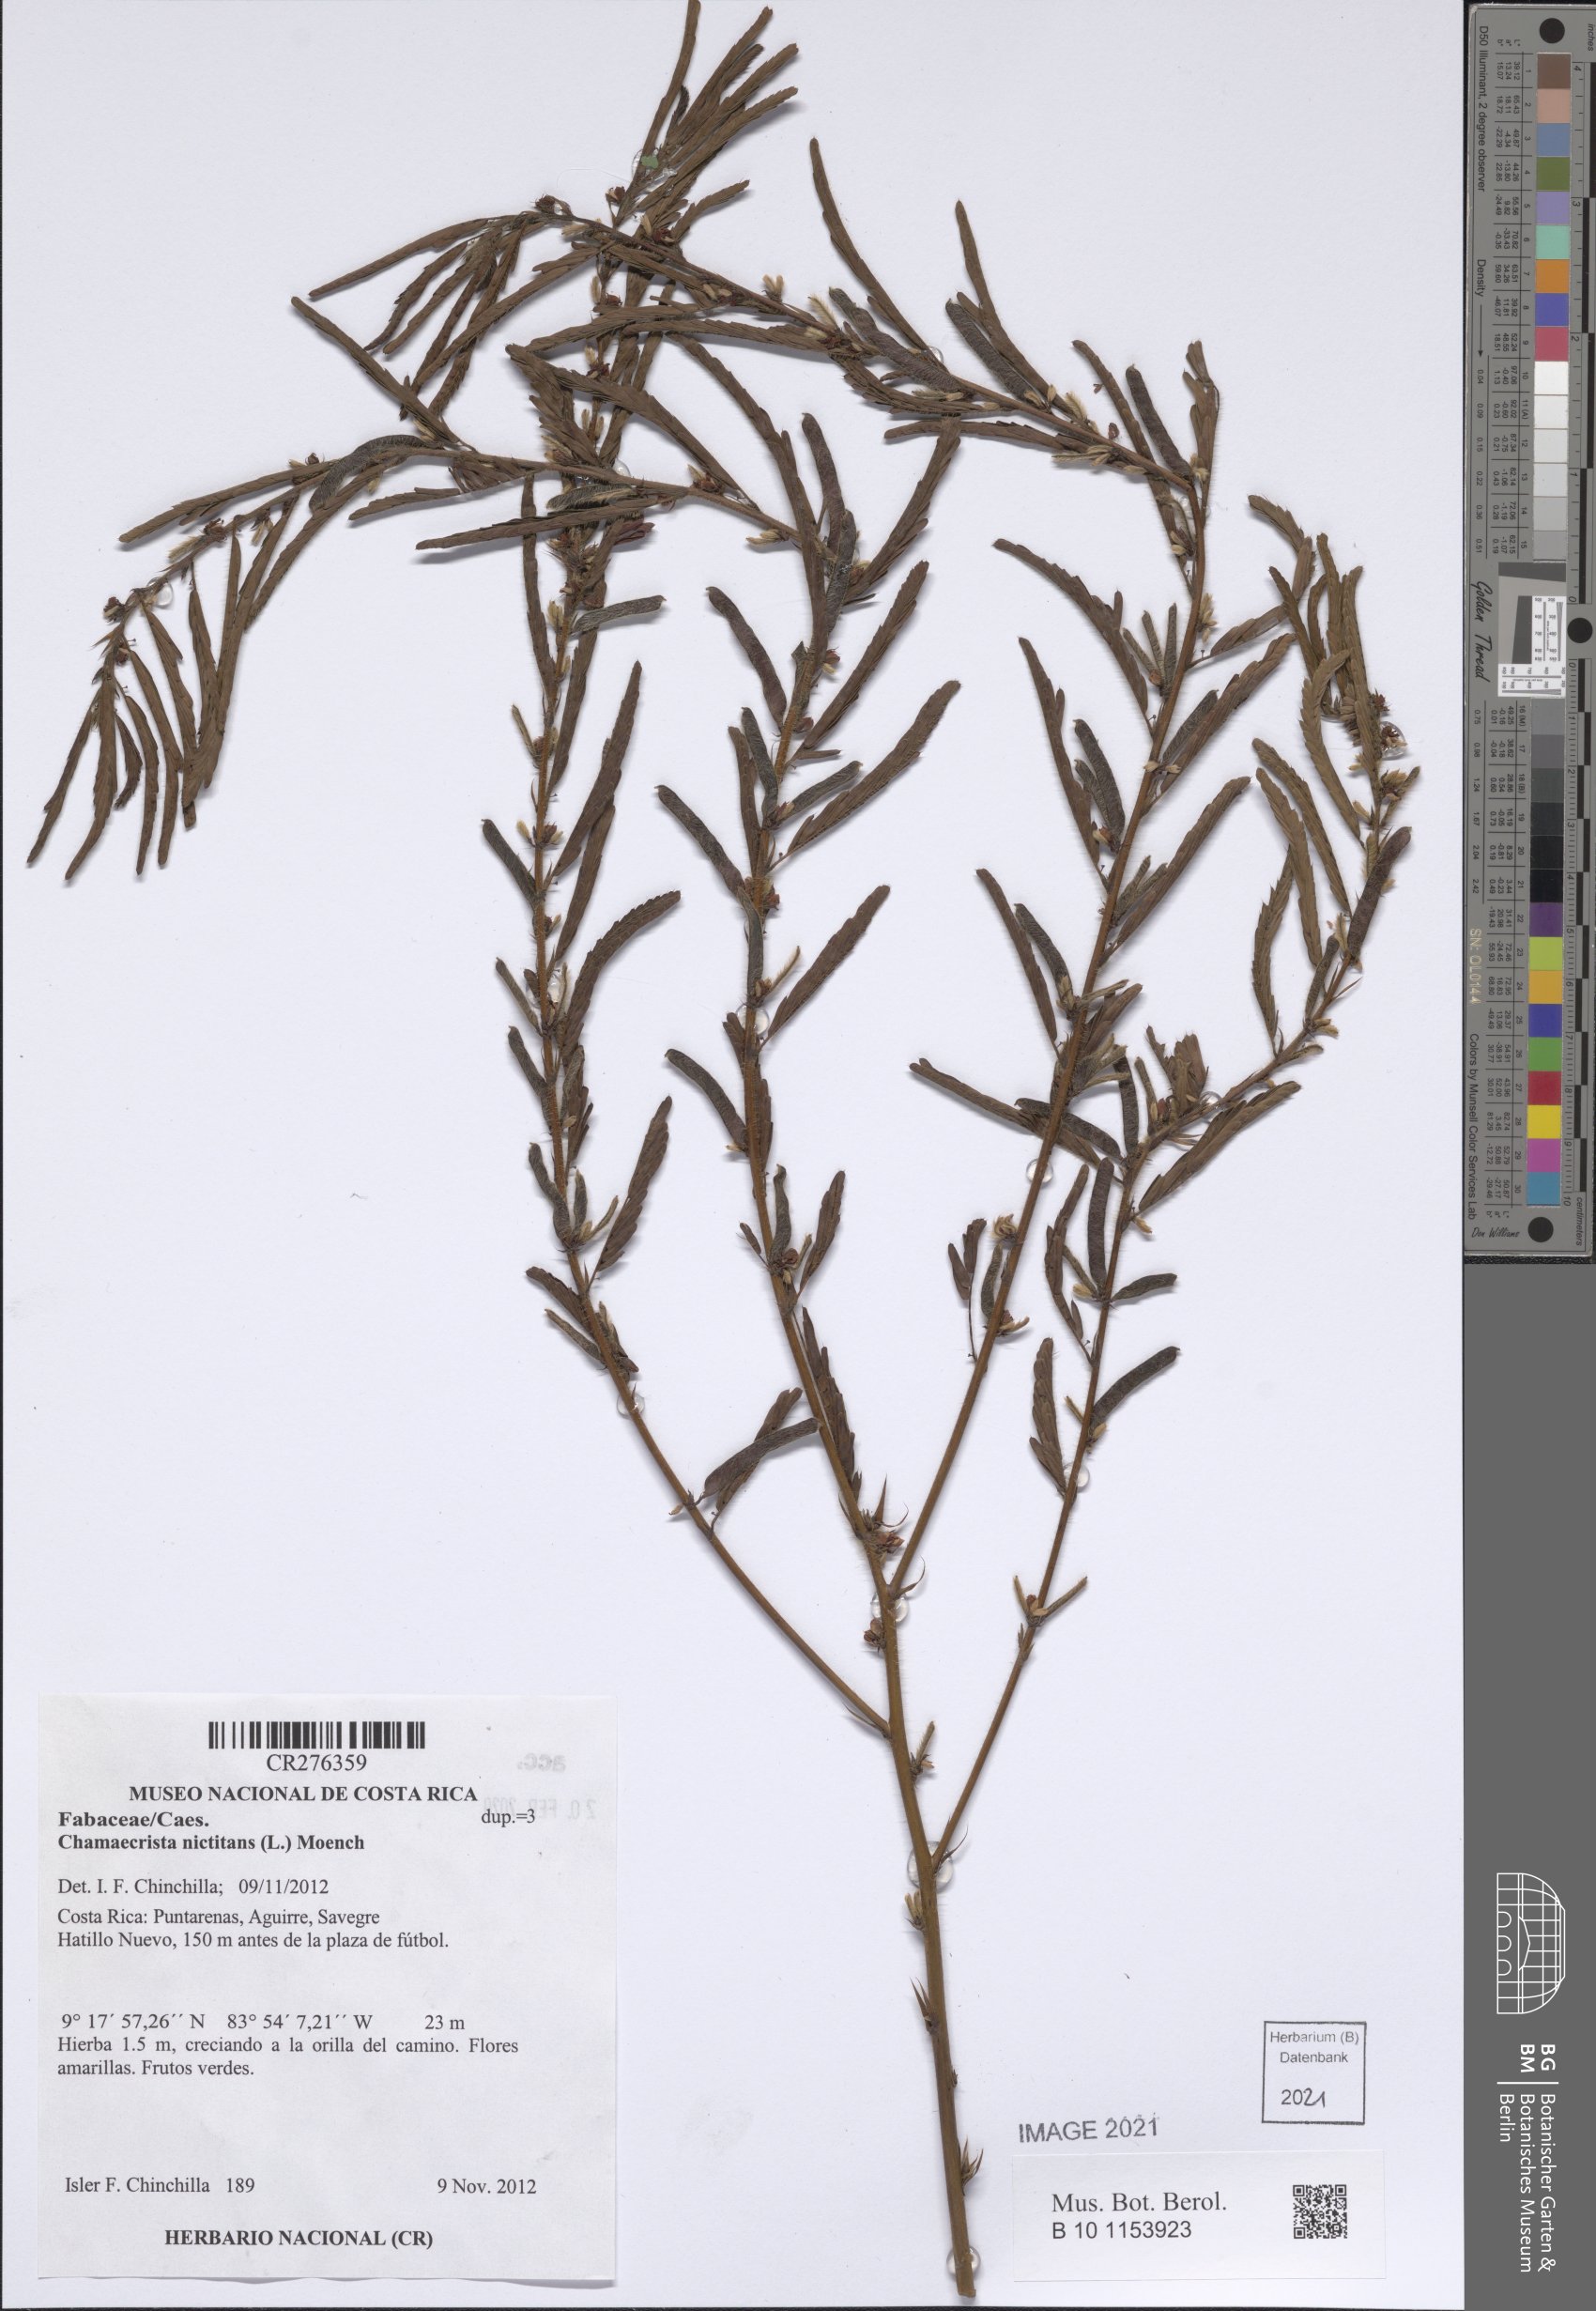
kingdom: Plantae
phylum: Tracheophyta
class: Magnoliopsida
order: Fabales
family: Fabaceae
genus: Chamaecrista
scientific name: Chamaecrista nictitans
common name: Sensitive cassia
